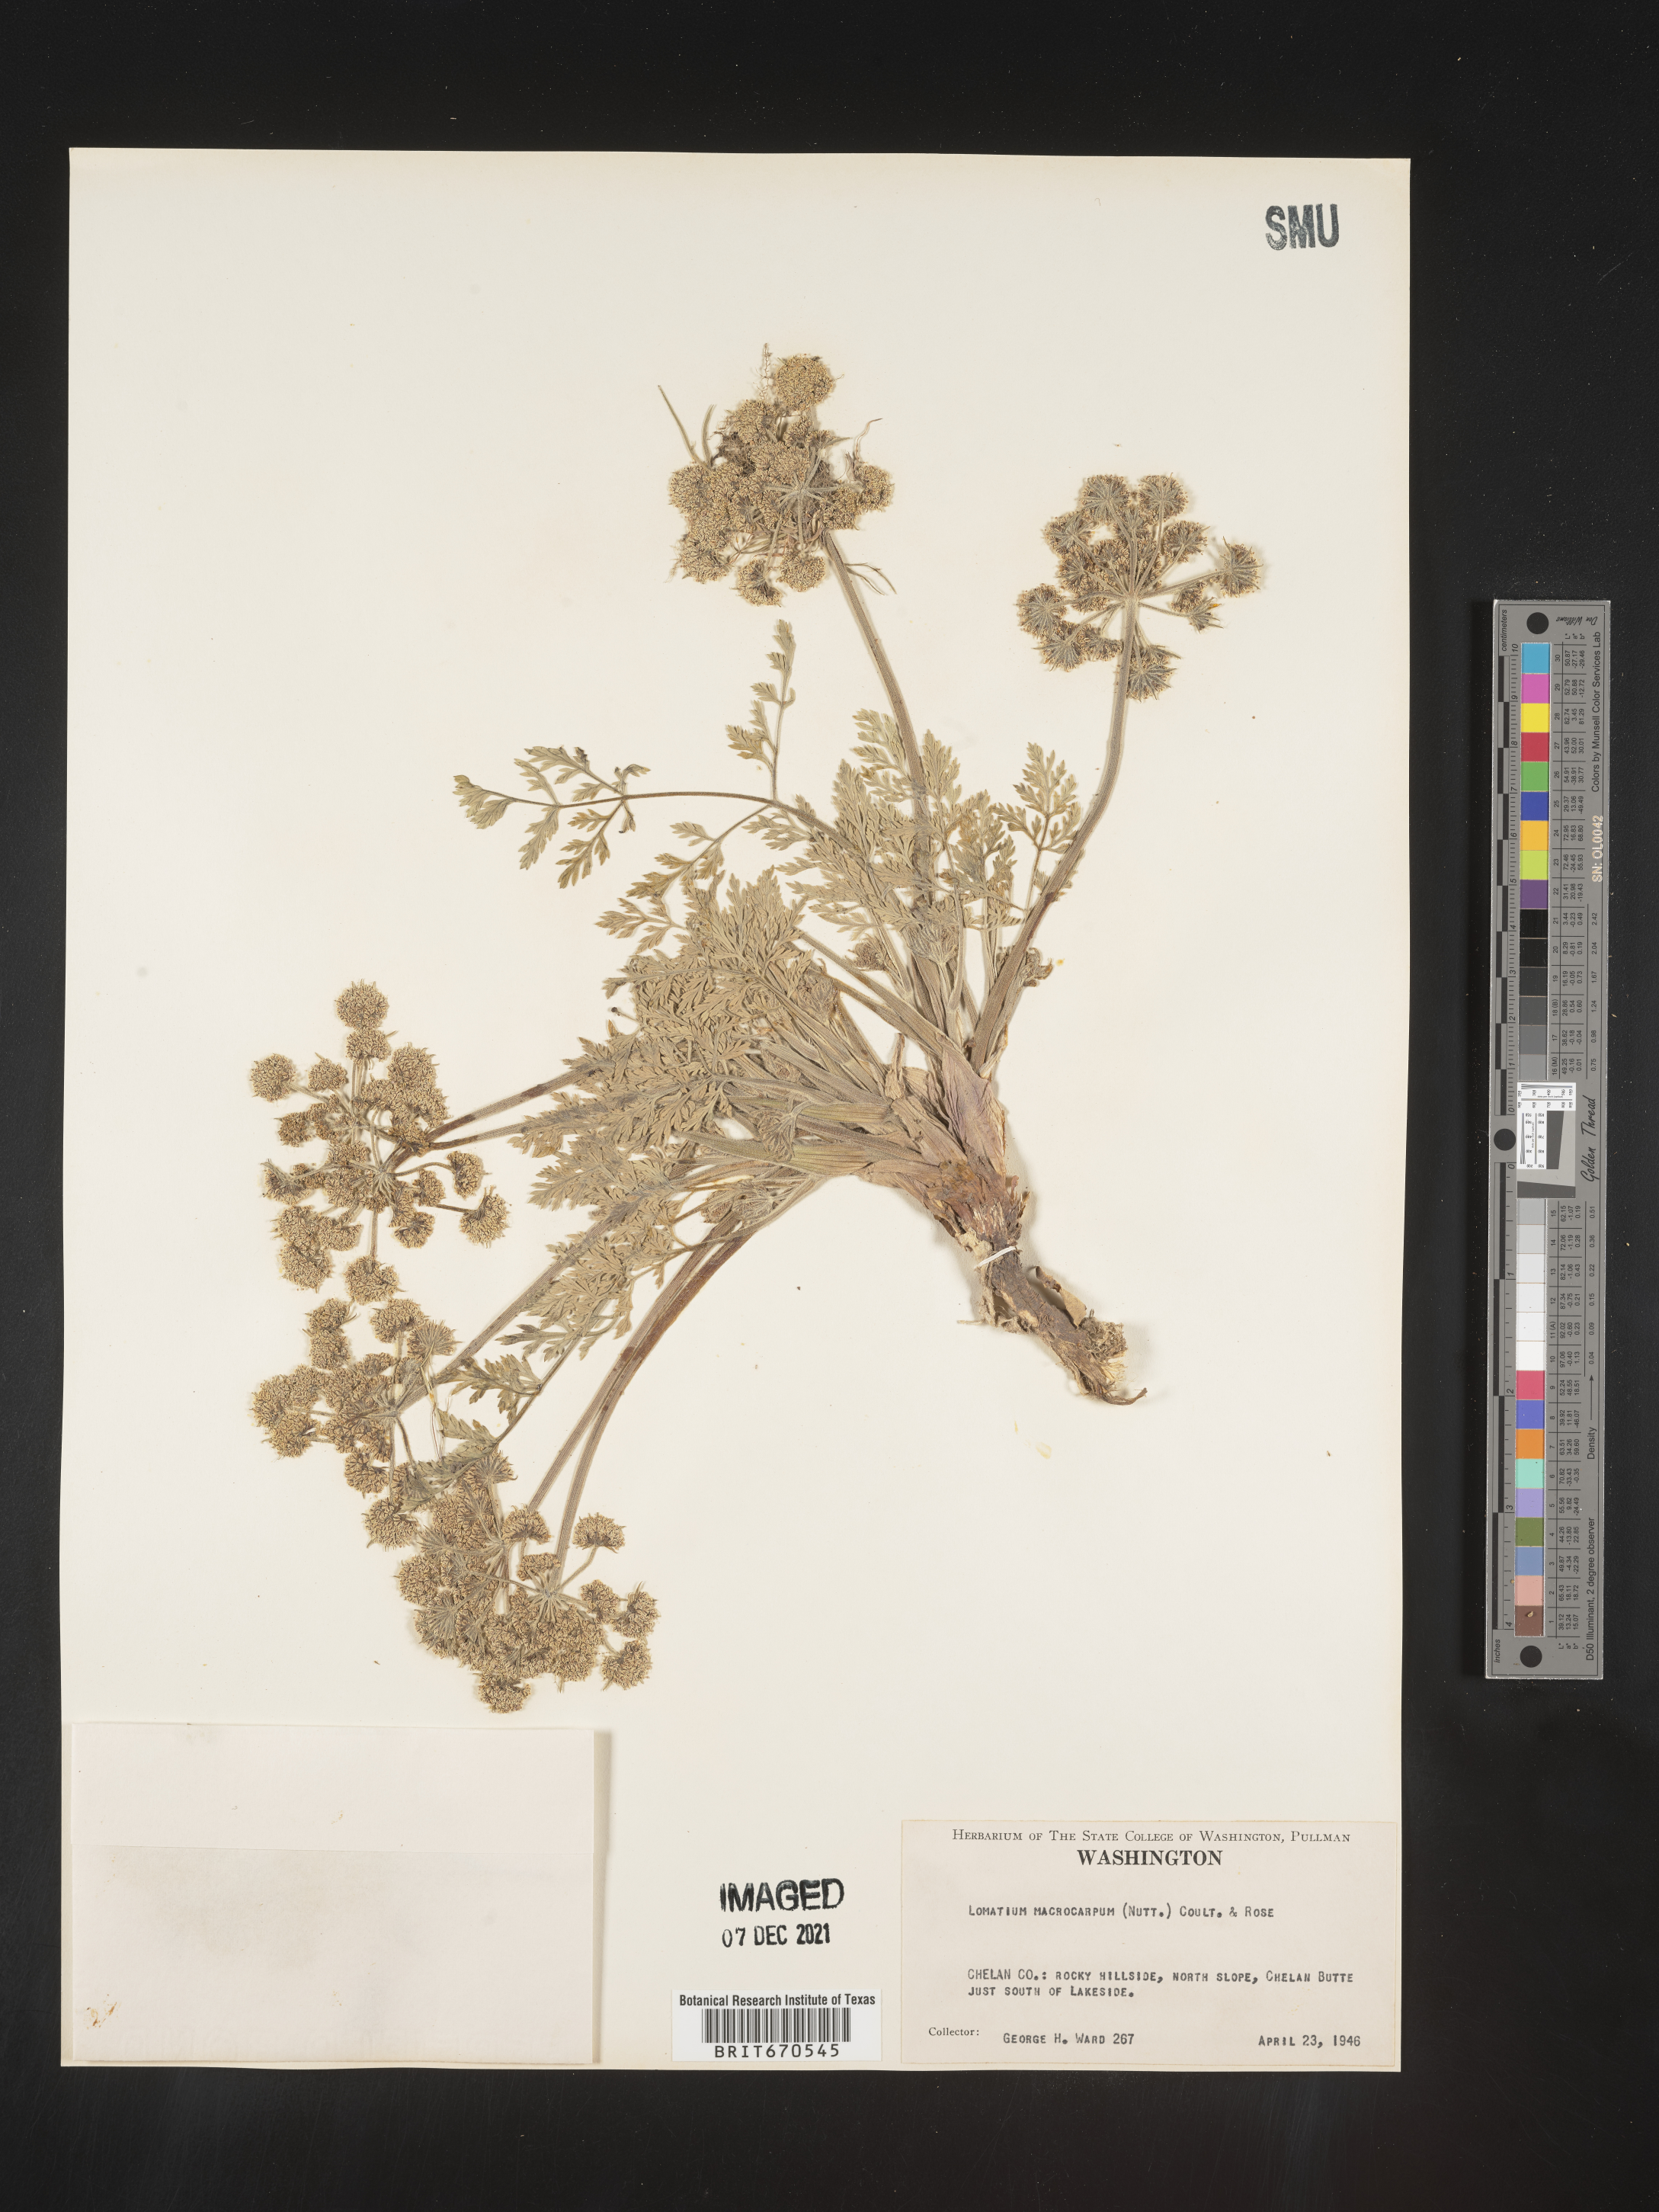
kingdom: Plantae
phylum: Tracheophyta
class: Magnoliopsida
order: Apiales
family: Apiaceae
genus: Lomatium
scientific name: Lomatium macrocarpum
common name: Big-seed biscuitroot
